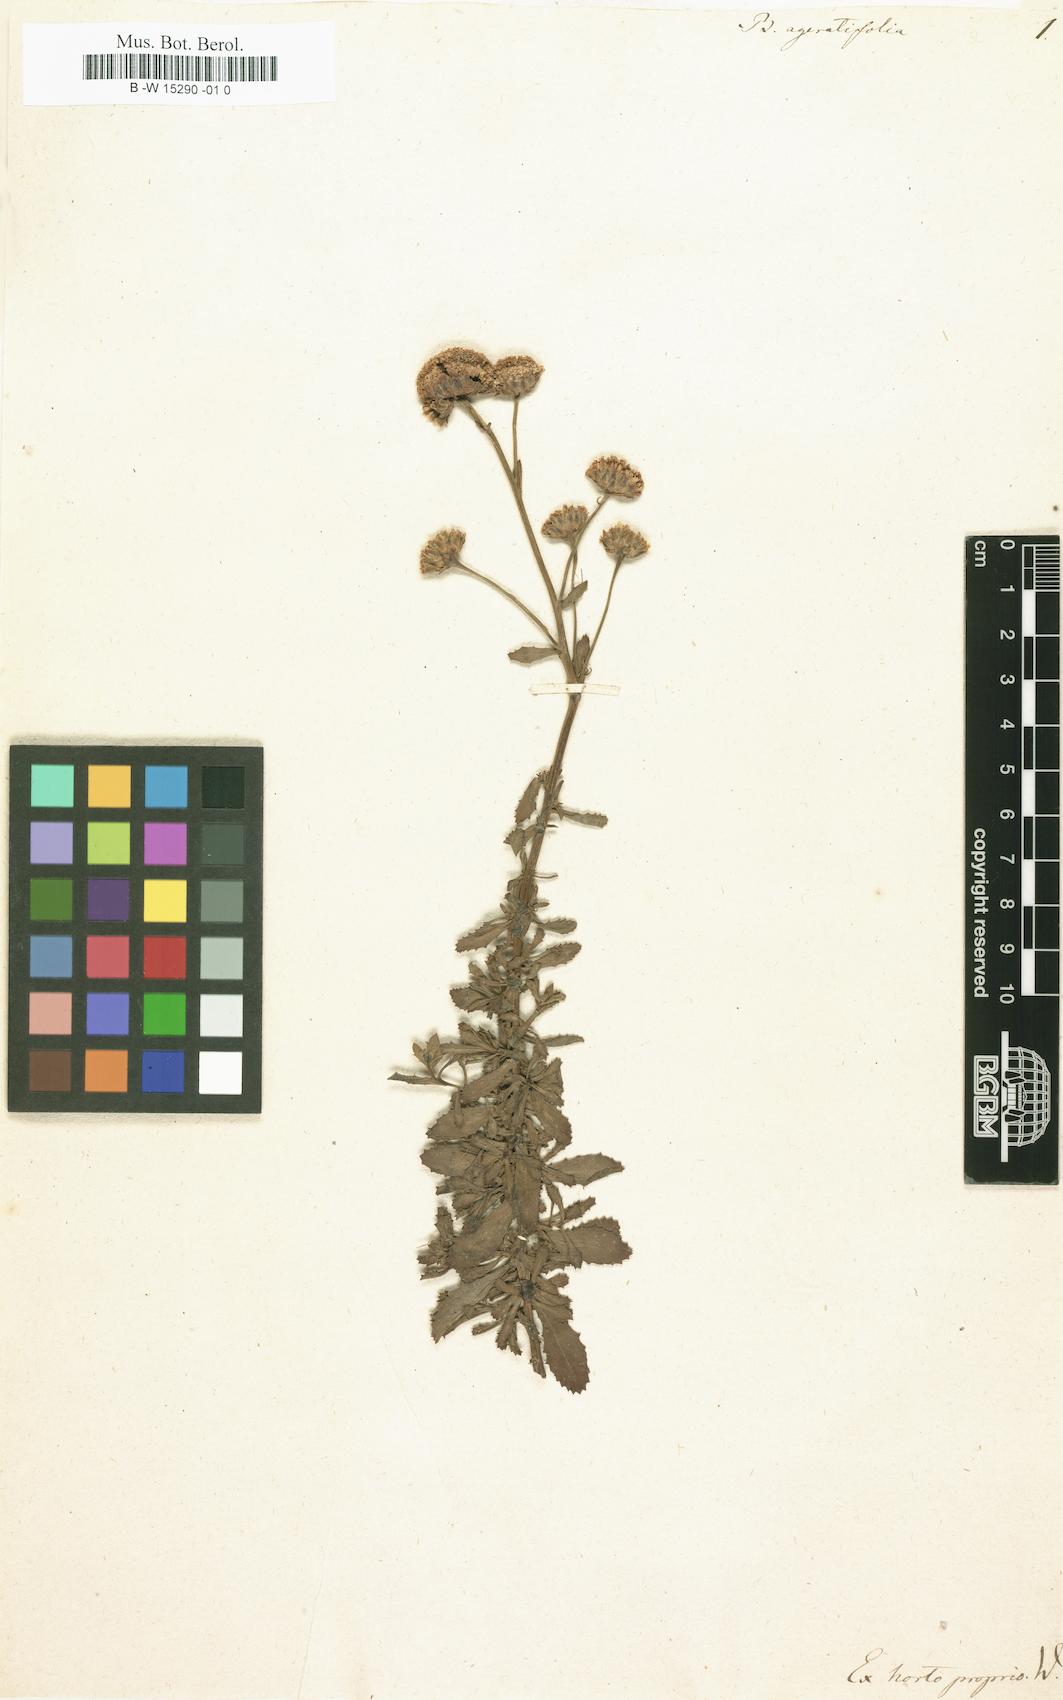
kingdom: Plantae
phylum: Tracheophyta
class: Magnoliopsida
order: Asterales
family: Asteraceae
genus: Plagius
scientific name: Plagius flosculosus
